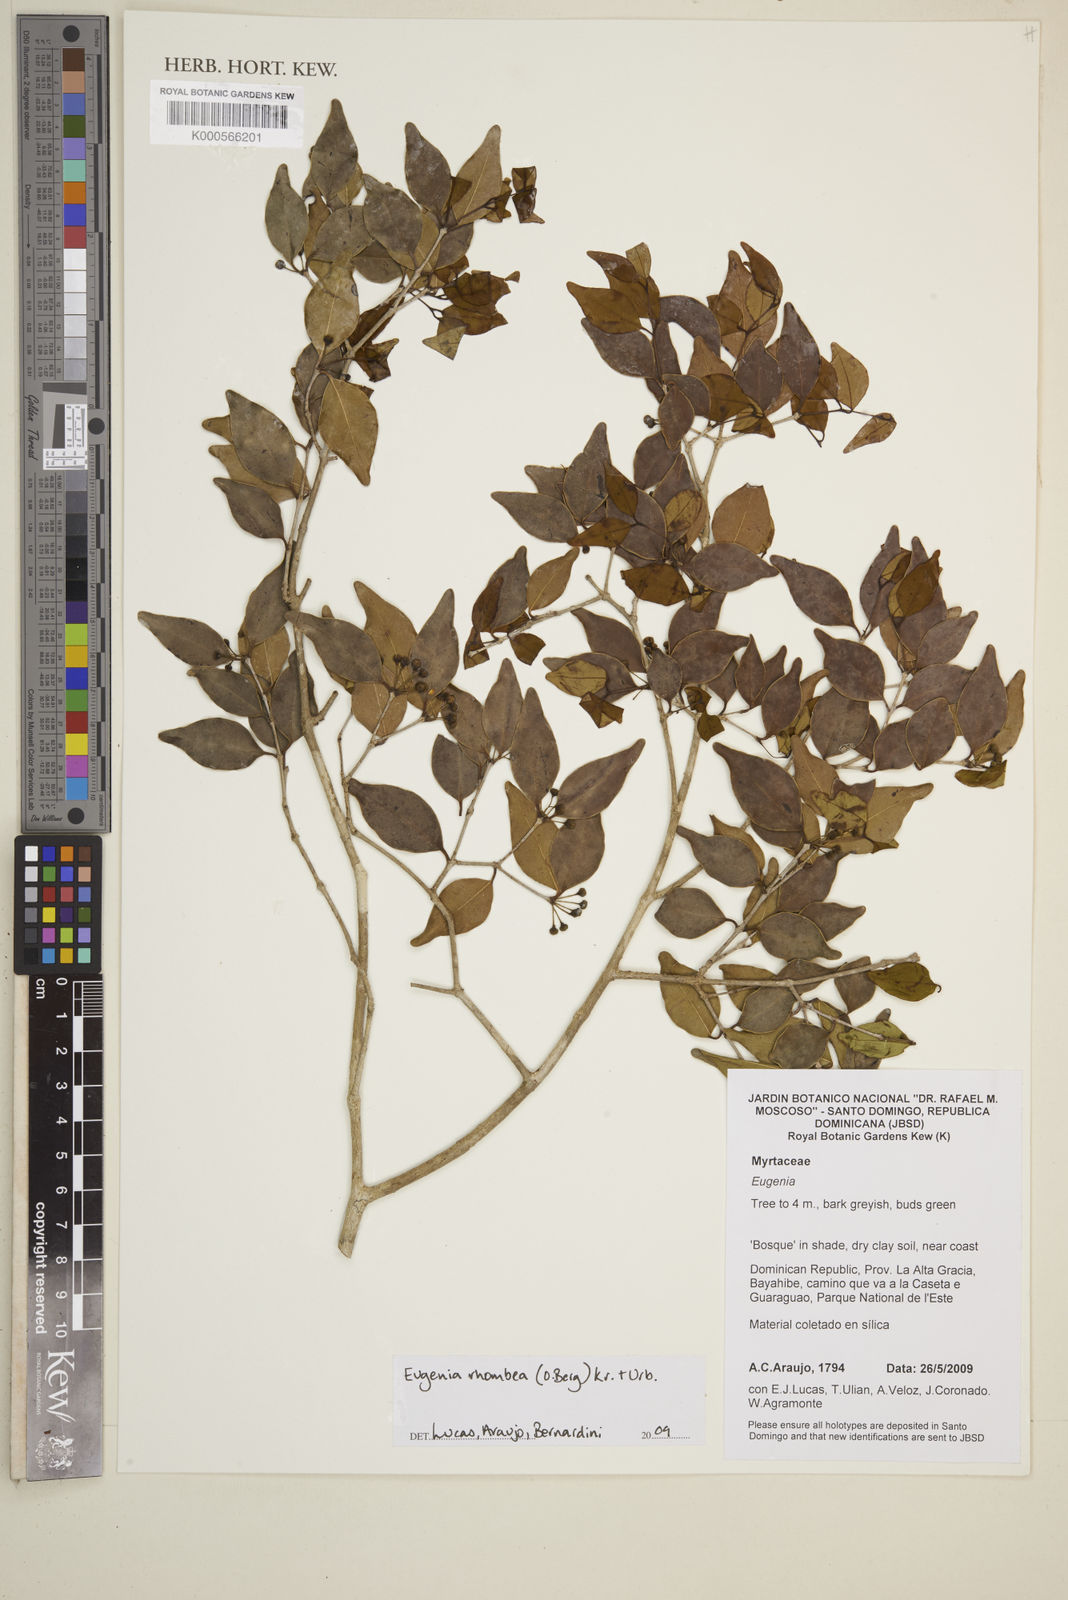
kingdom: Plantae
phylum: Tracheophyta
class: Magnoliopsida
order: Myrtales
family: Myrtaceae
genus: Eugenia
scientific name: Eugenia rhombea
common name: Pigeon berry
